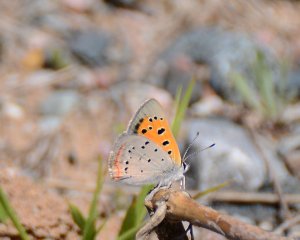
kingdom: Animalia
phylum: Arthropoda
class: Insecta
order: Lepidoptera
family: Lycaenidae
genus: Lycaena
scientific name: Lycaena phlaeas
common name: American Copper
